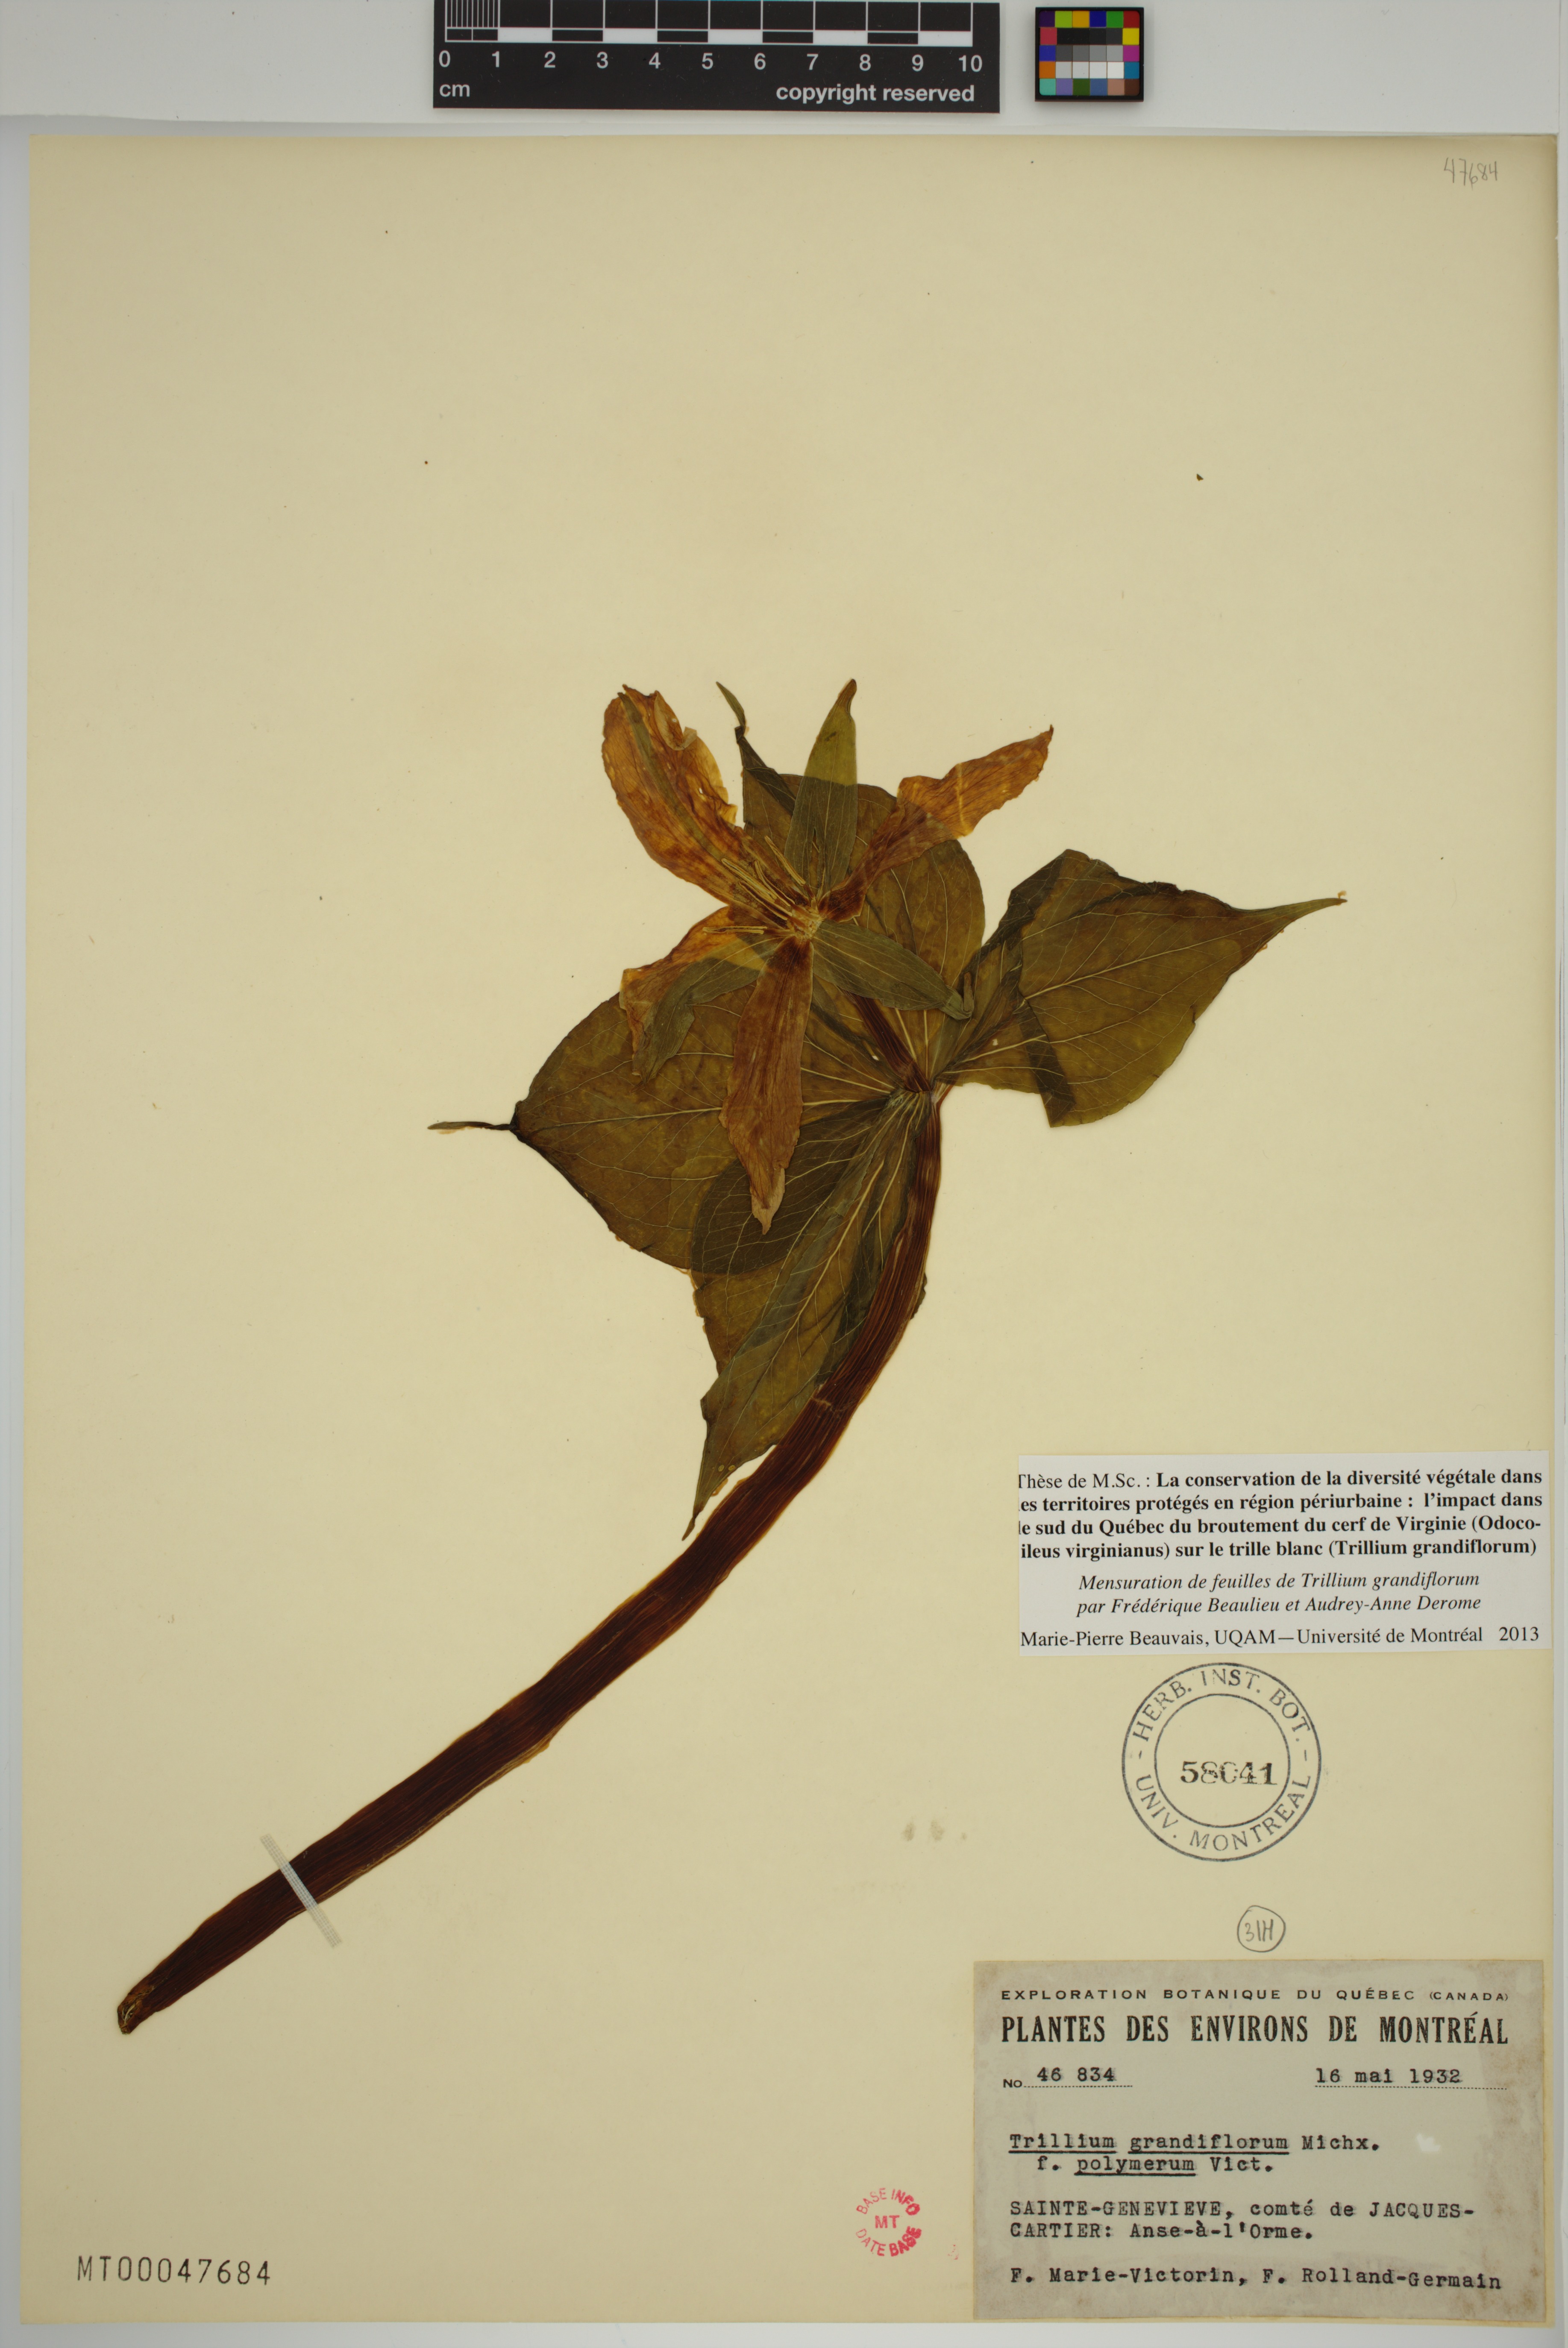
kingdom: Plantae
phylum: Tracheophyta
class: Liliopsida
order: Liliales
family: Melanthiaceae
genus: Trillium
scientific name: Trillium grandiflorum
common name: Great white trillium
